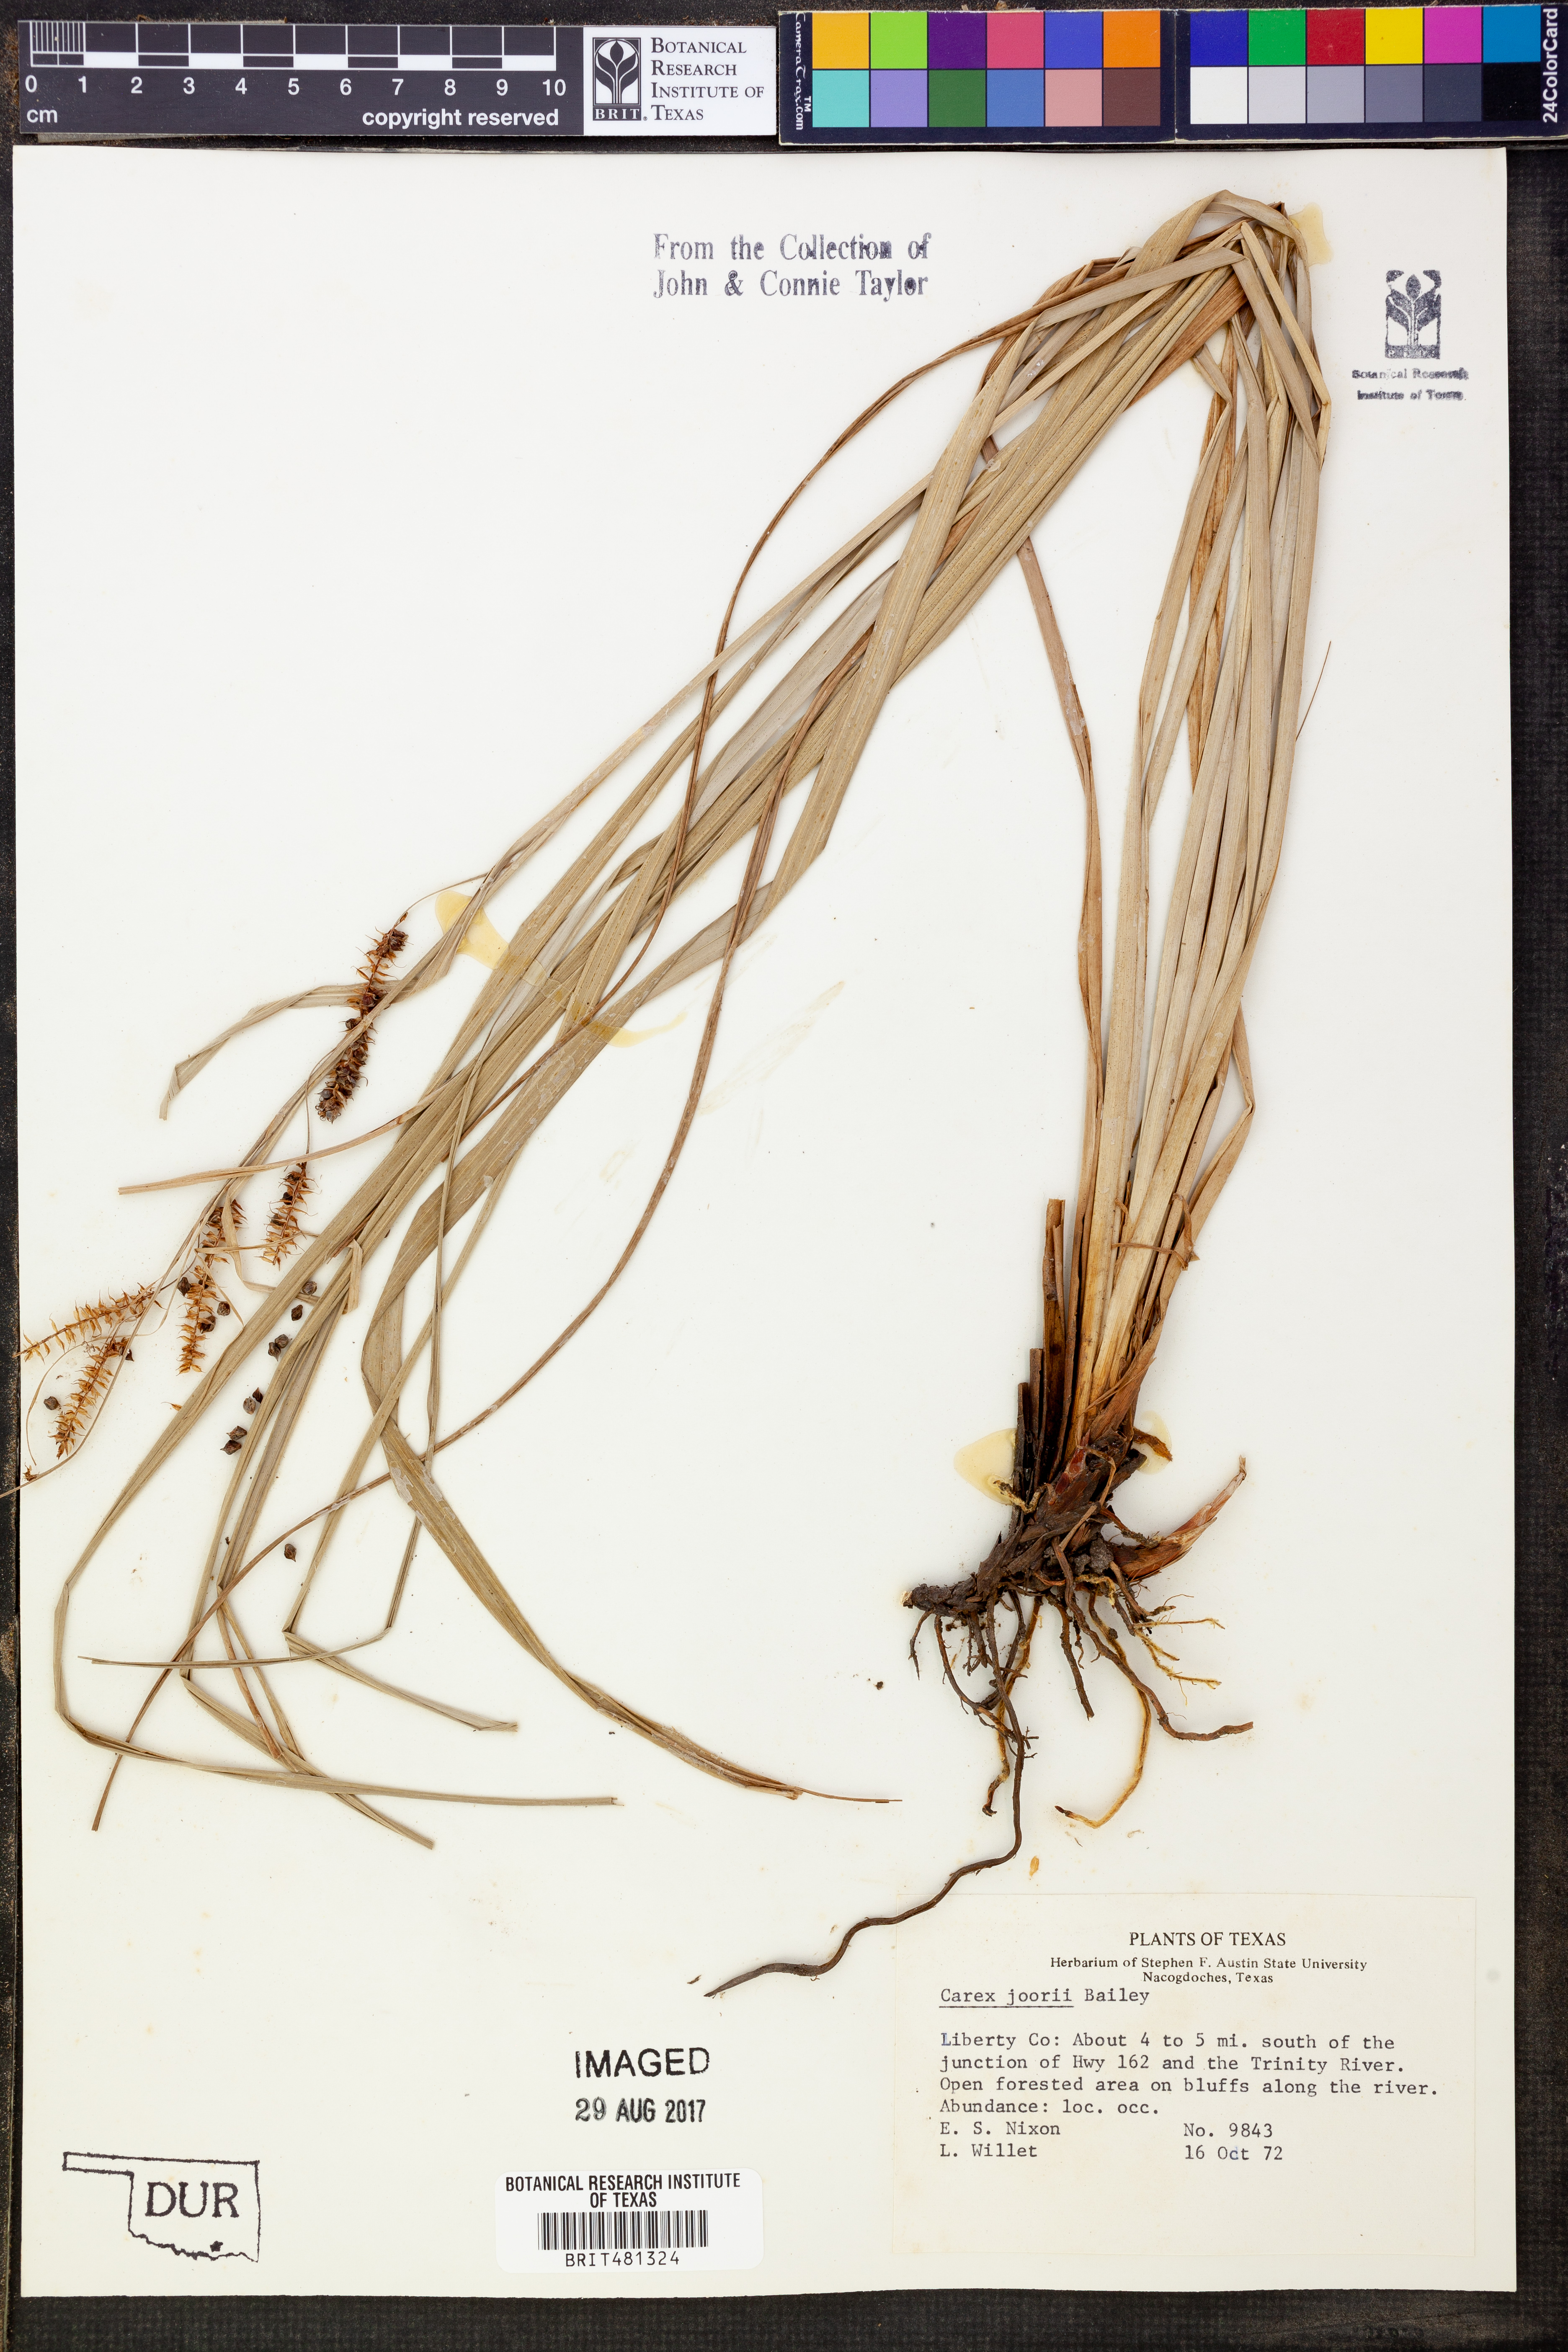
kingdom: Plantae
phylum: Tracheophyta
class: Liliopsida
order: Poales
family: Cyperaceae
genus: Carex
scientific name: Carex joorii
